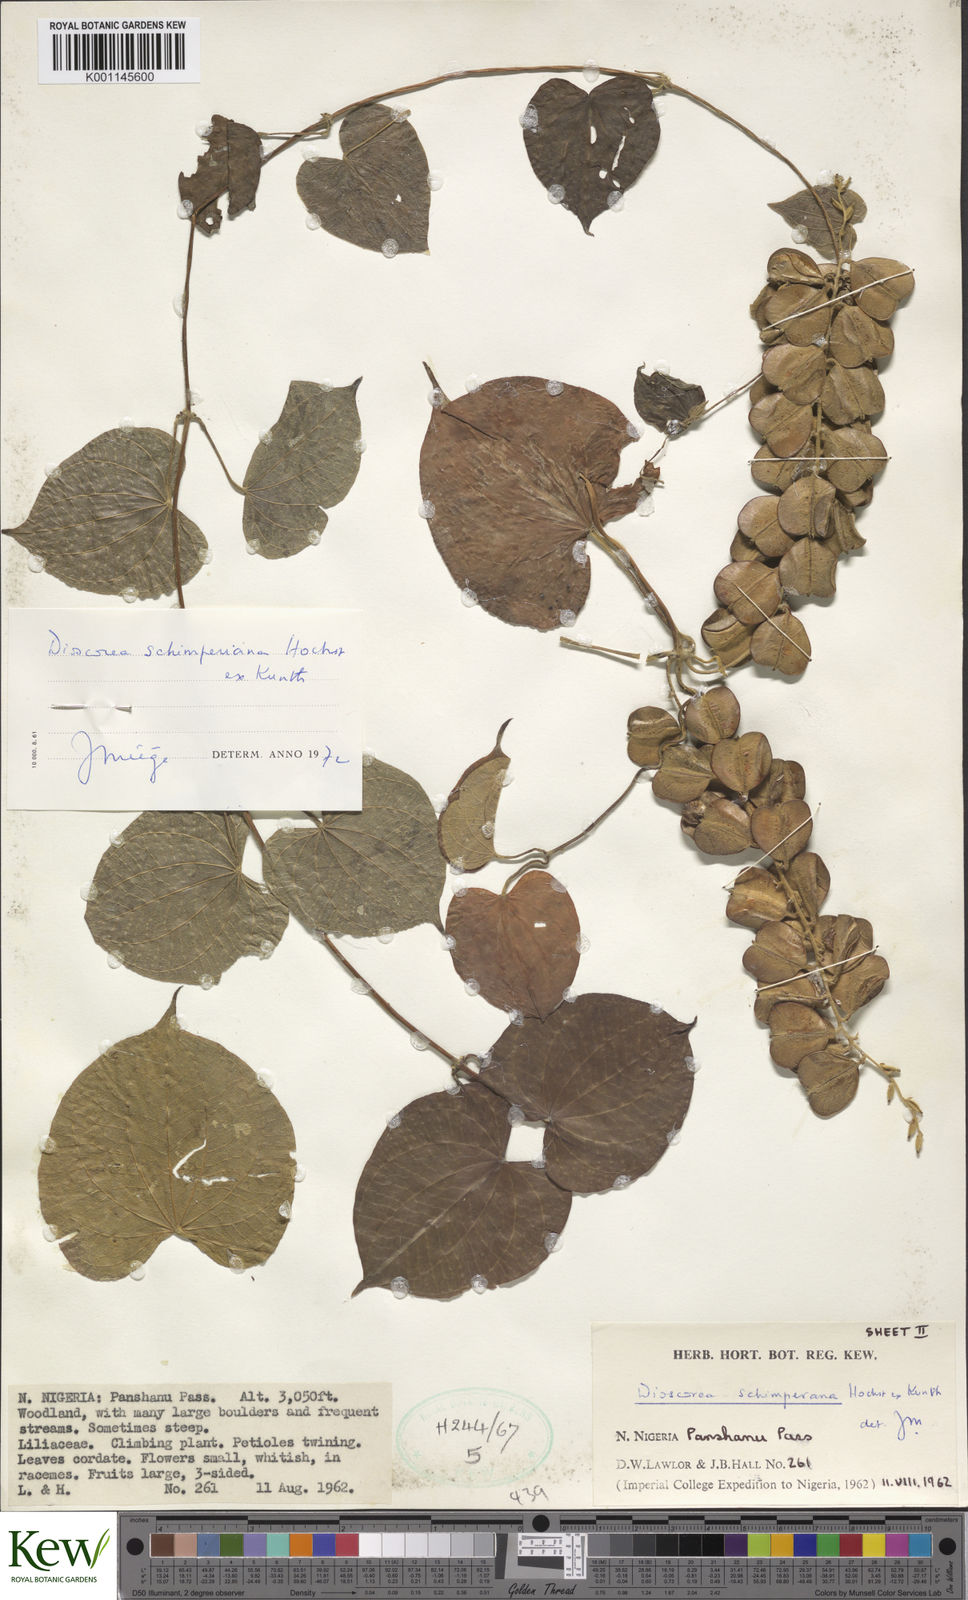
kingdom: Plantae
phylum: Tracheophyta
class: Liliopsida
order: Dioscoreales
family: Dioscoreaceae
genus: Dioscorea
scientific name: Dioscorea schimperiana
